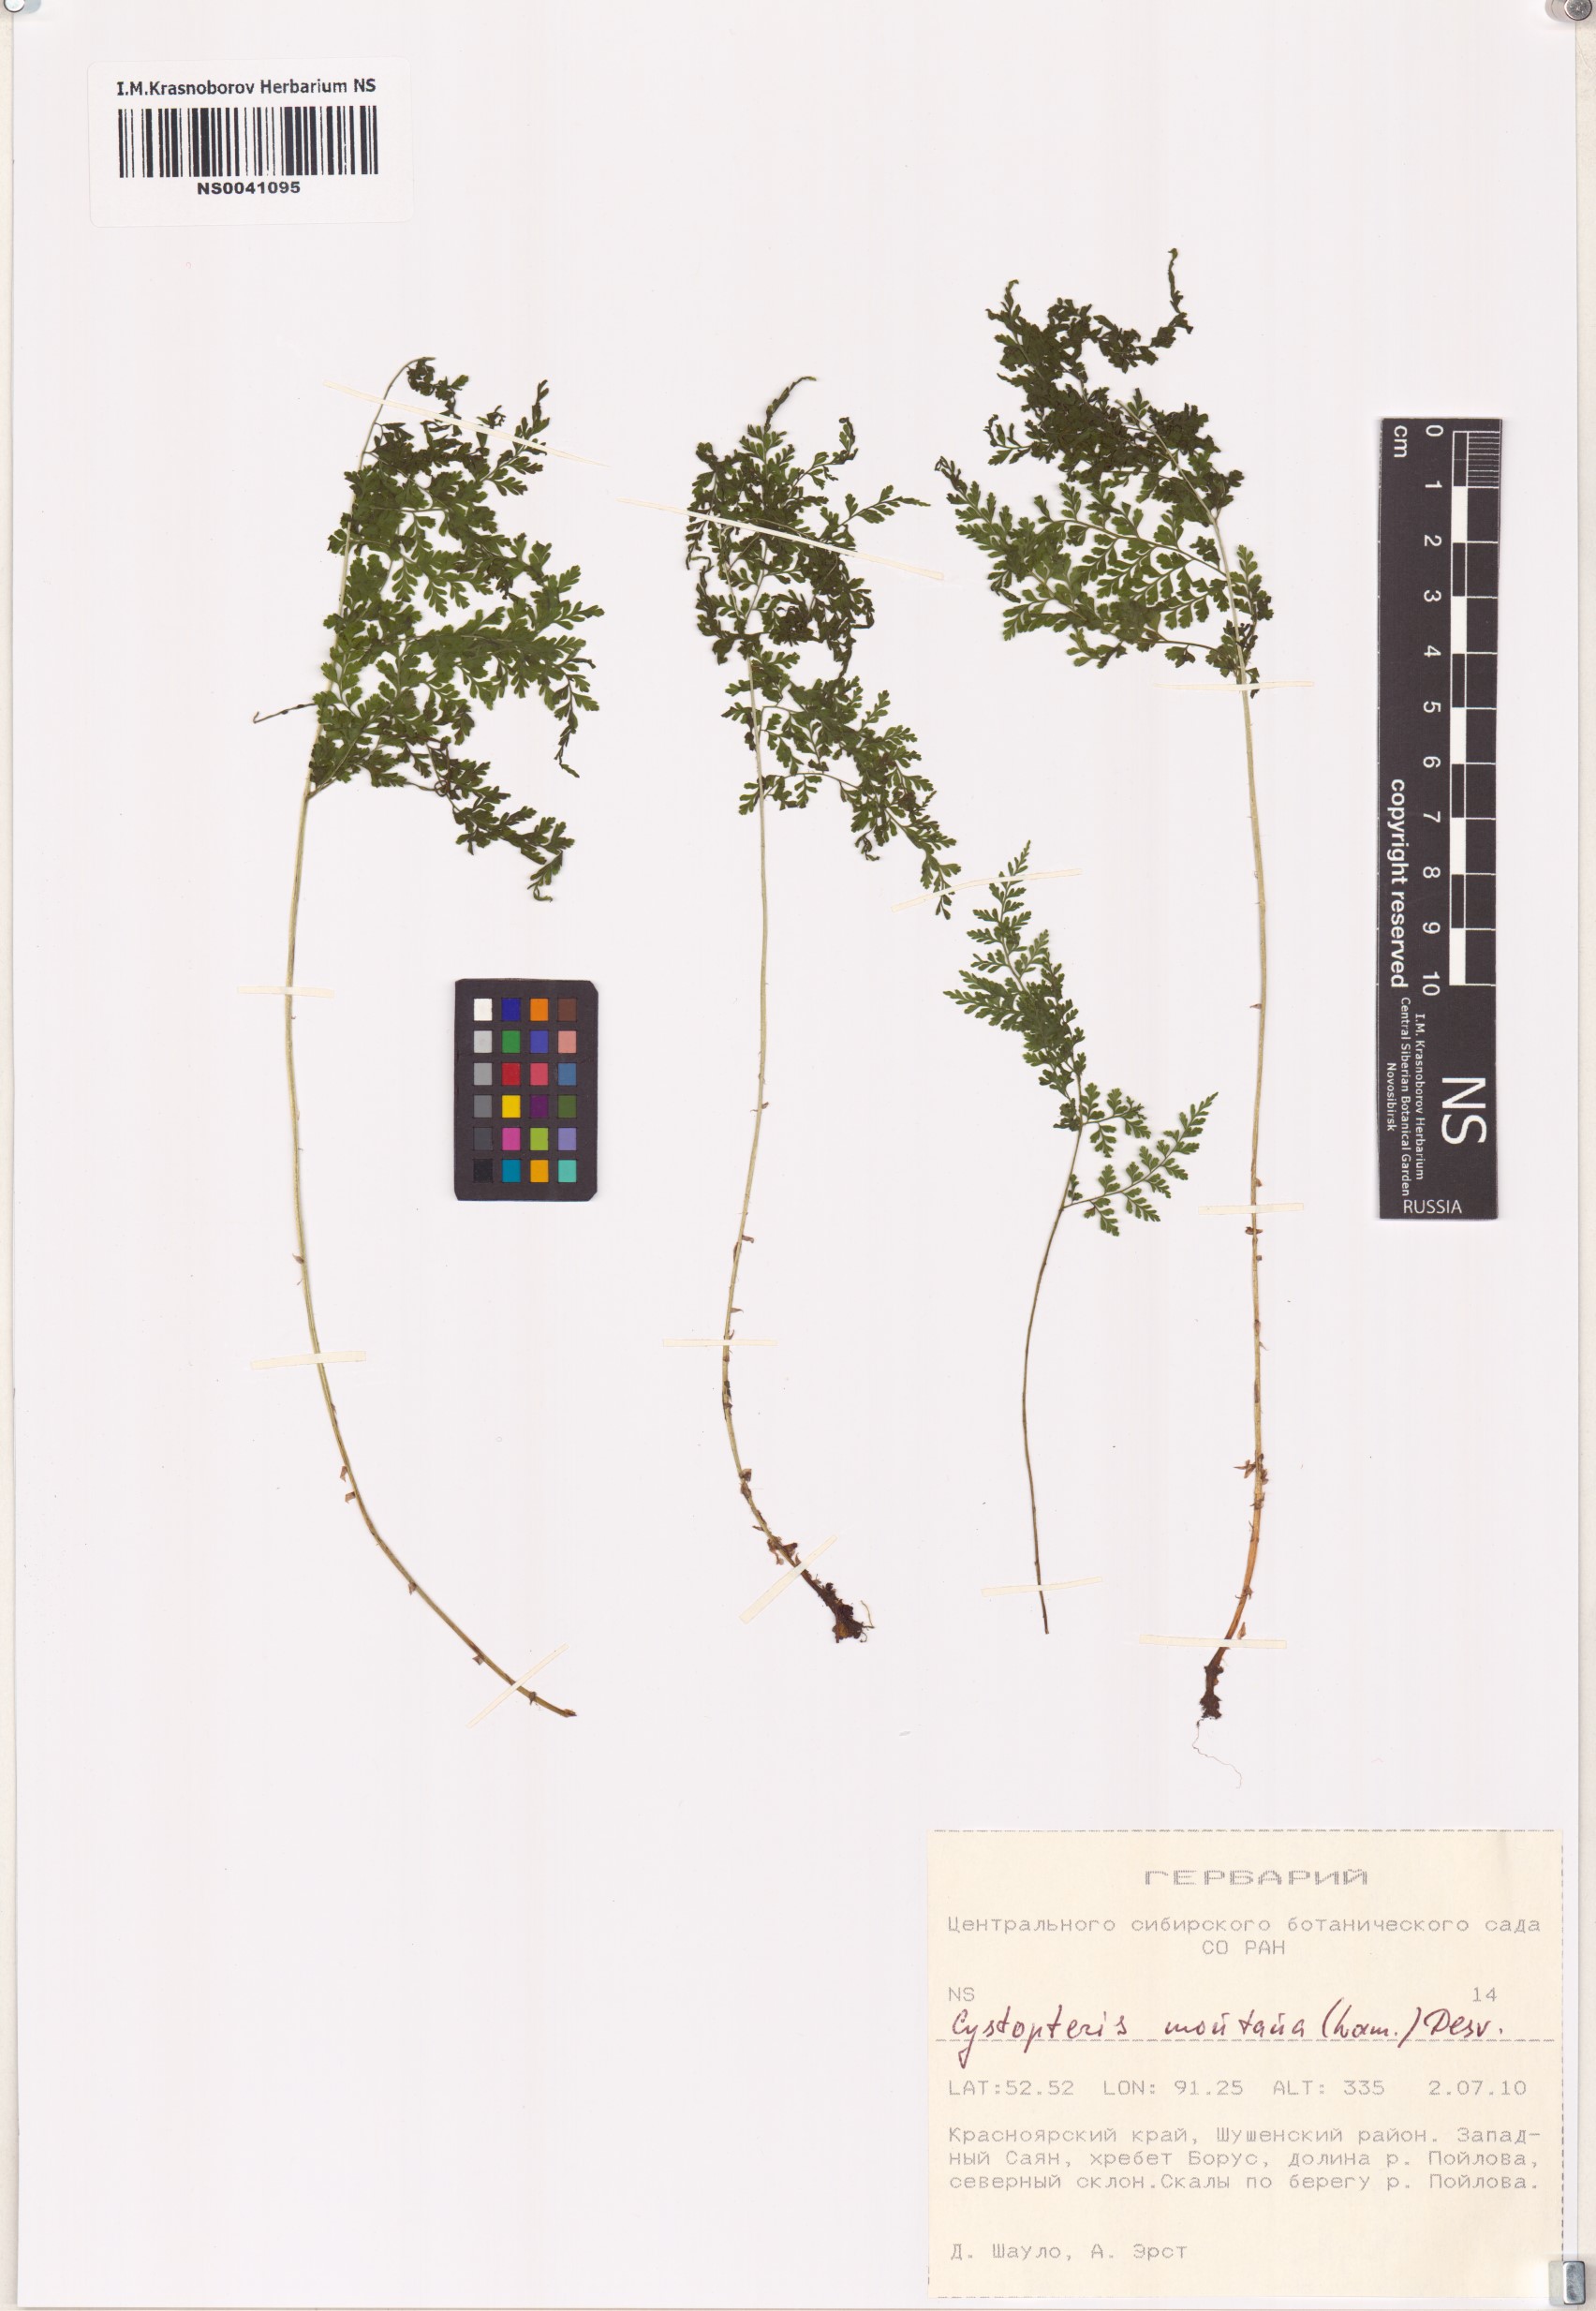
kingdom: Plantae
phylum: Tracheophyta
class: Polypodiopsida
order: Polypodiales
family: Cystopteridaceae
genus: Cystopteris
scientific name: Cystopteris montana
